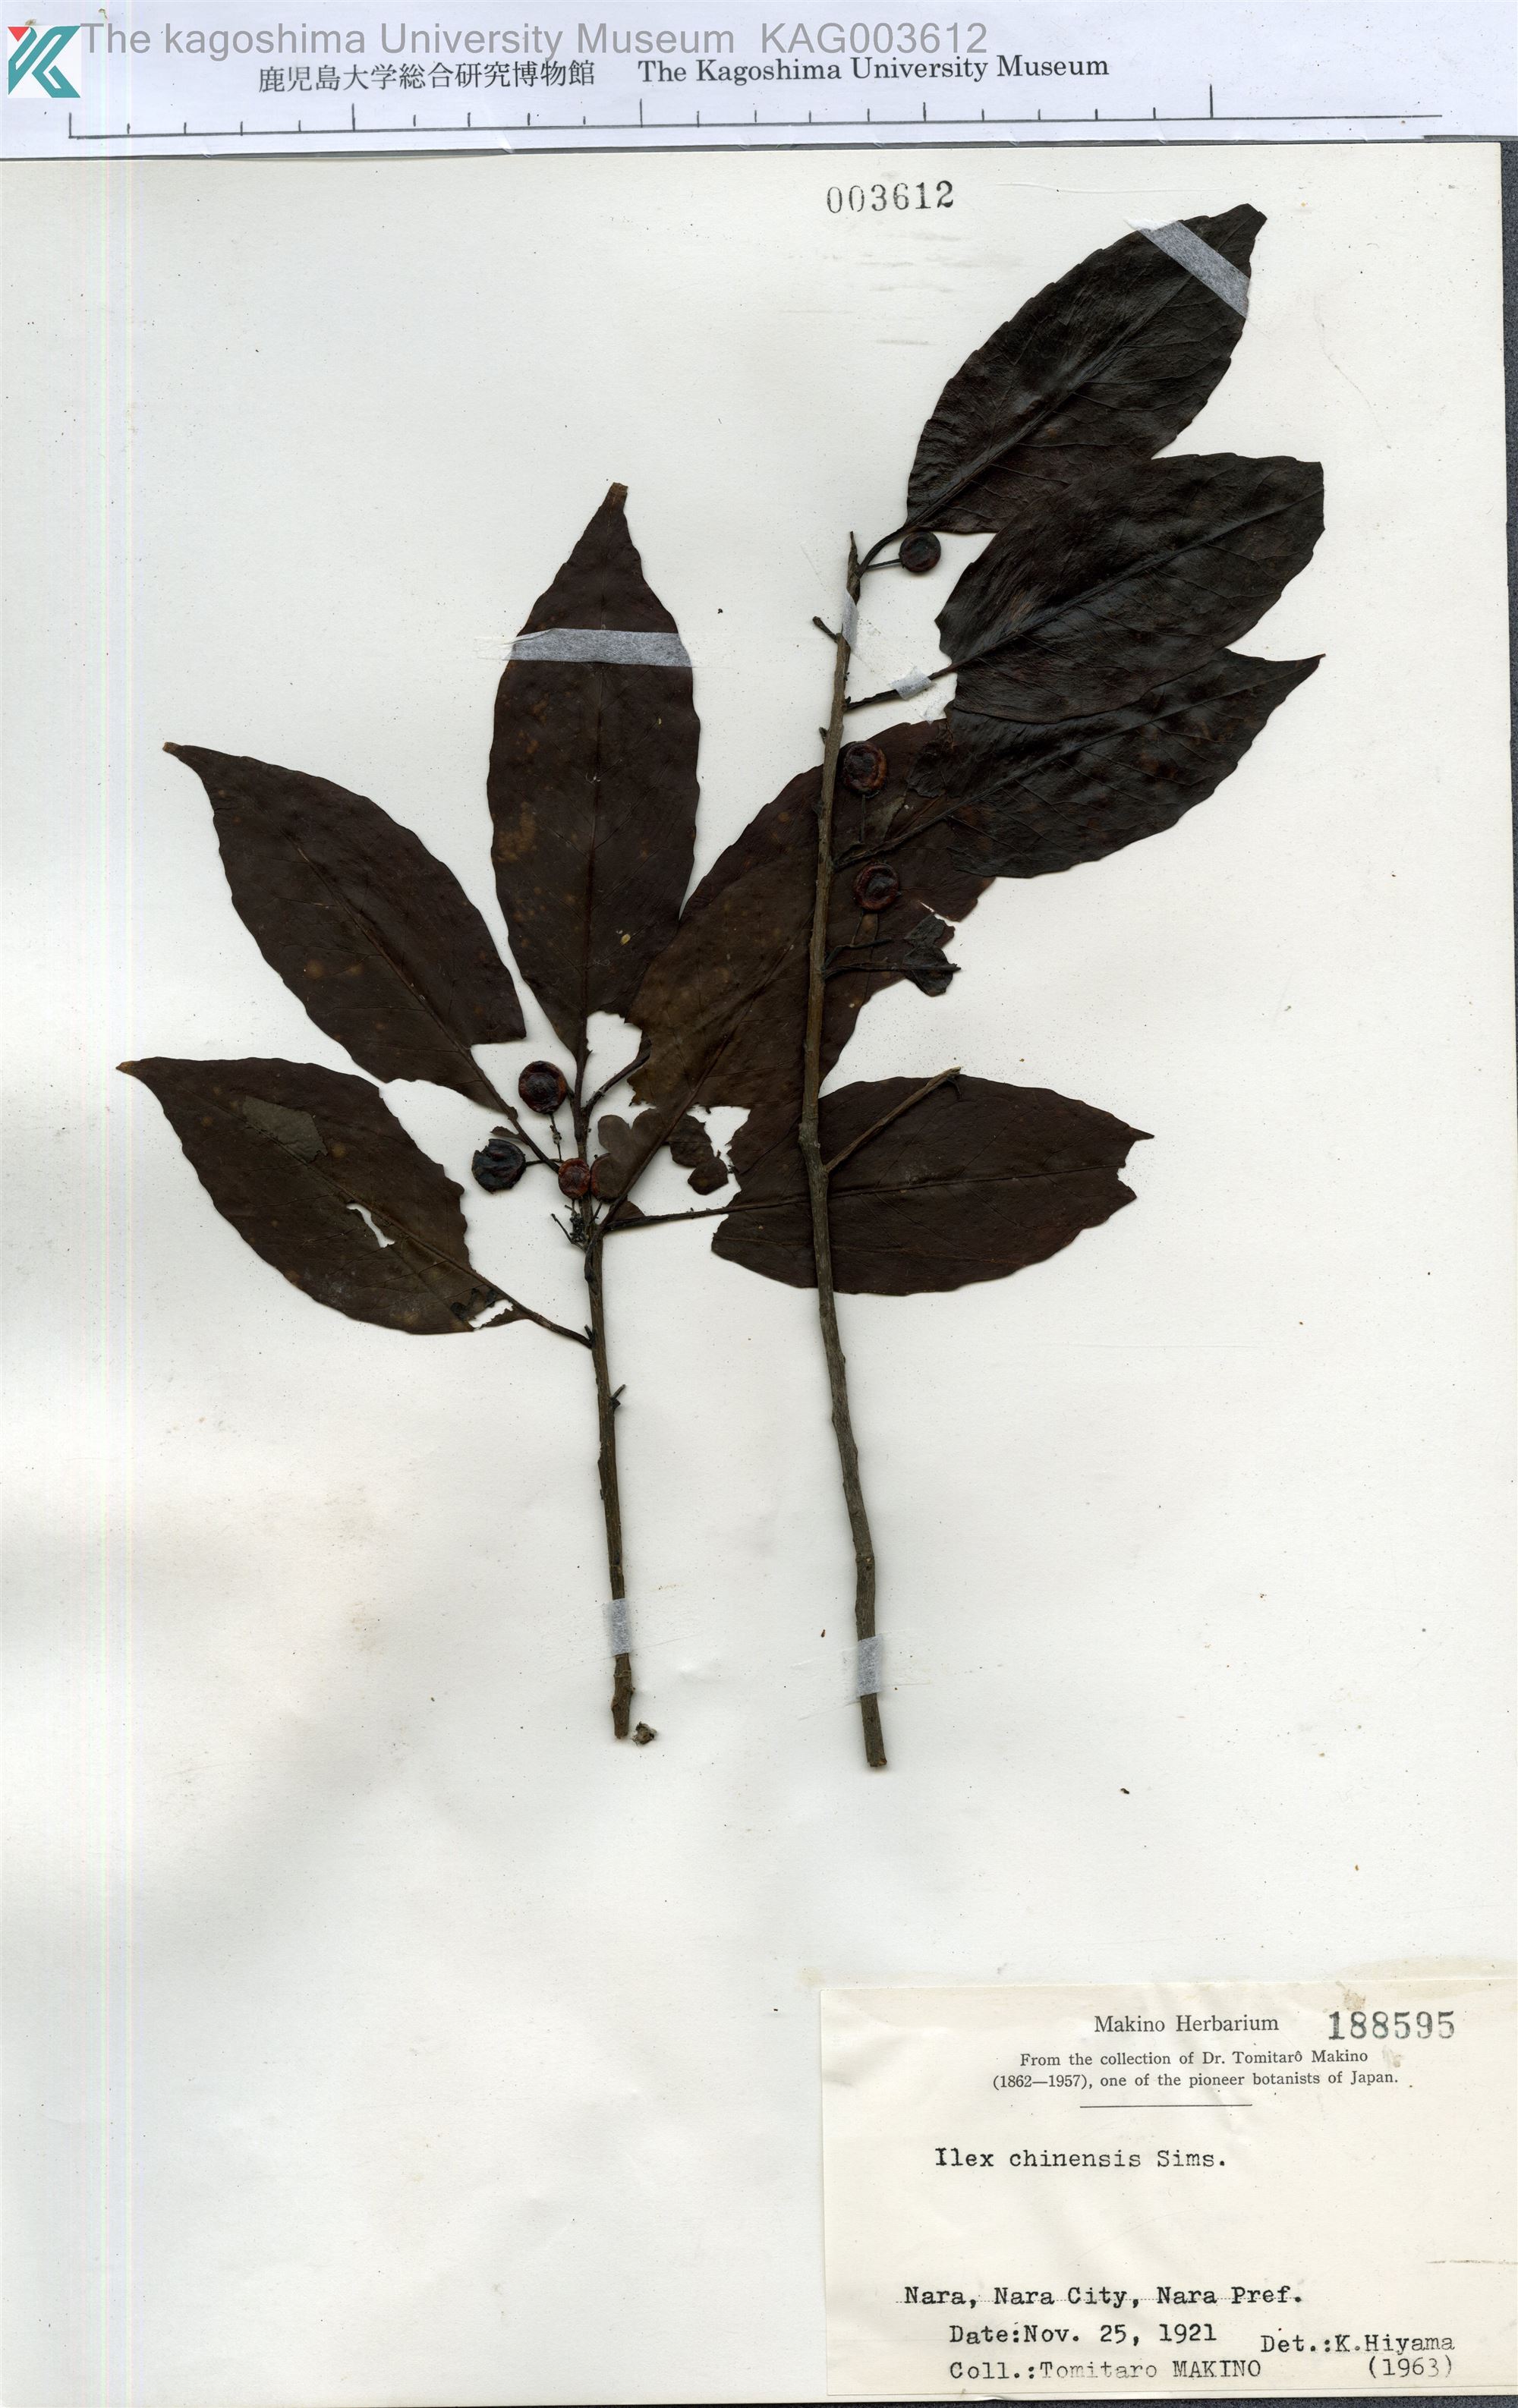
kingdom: Plantae
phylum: Tracheophyta
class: Magnoliopsida
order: Aquifoliales
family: Aquifoliaceae
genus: Ilex
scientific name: Ilex chinensis
